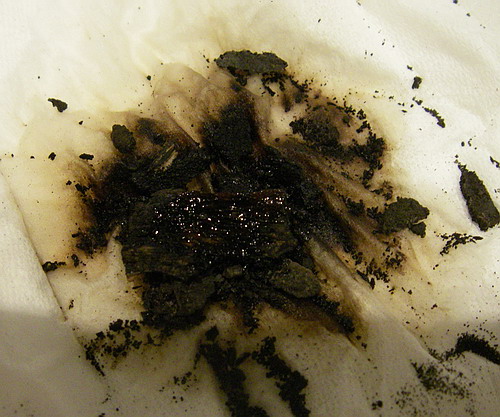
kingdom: Fungi
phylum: Ascomycota
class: Sordariomycetes
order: Xylariales
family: Hypoxylaceae
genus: Hypoxylon
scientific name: Hypoxylon macrocarpum
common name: skorpe-kulbær
